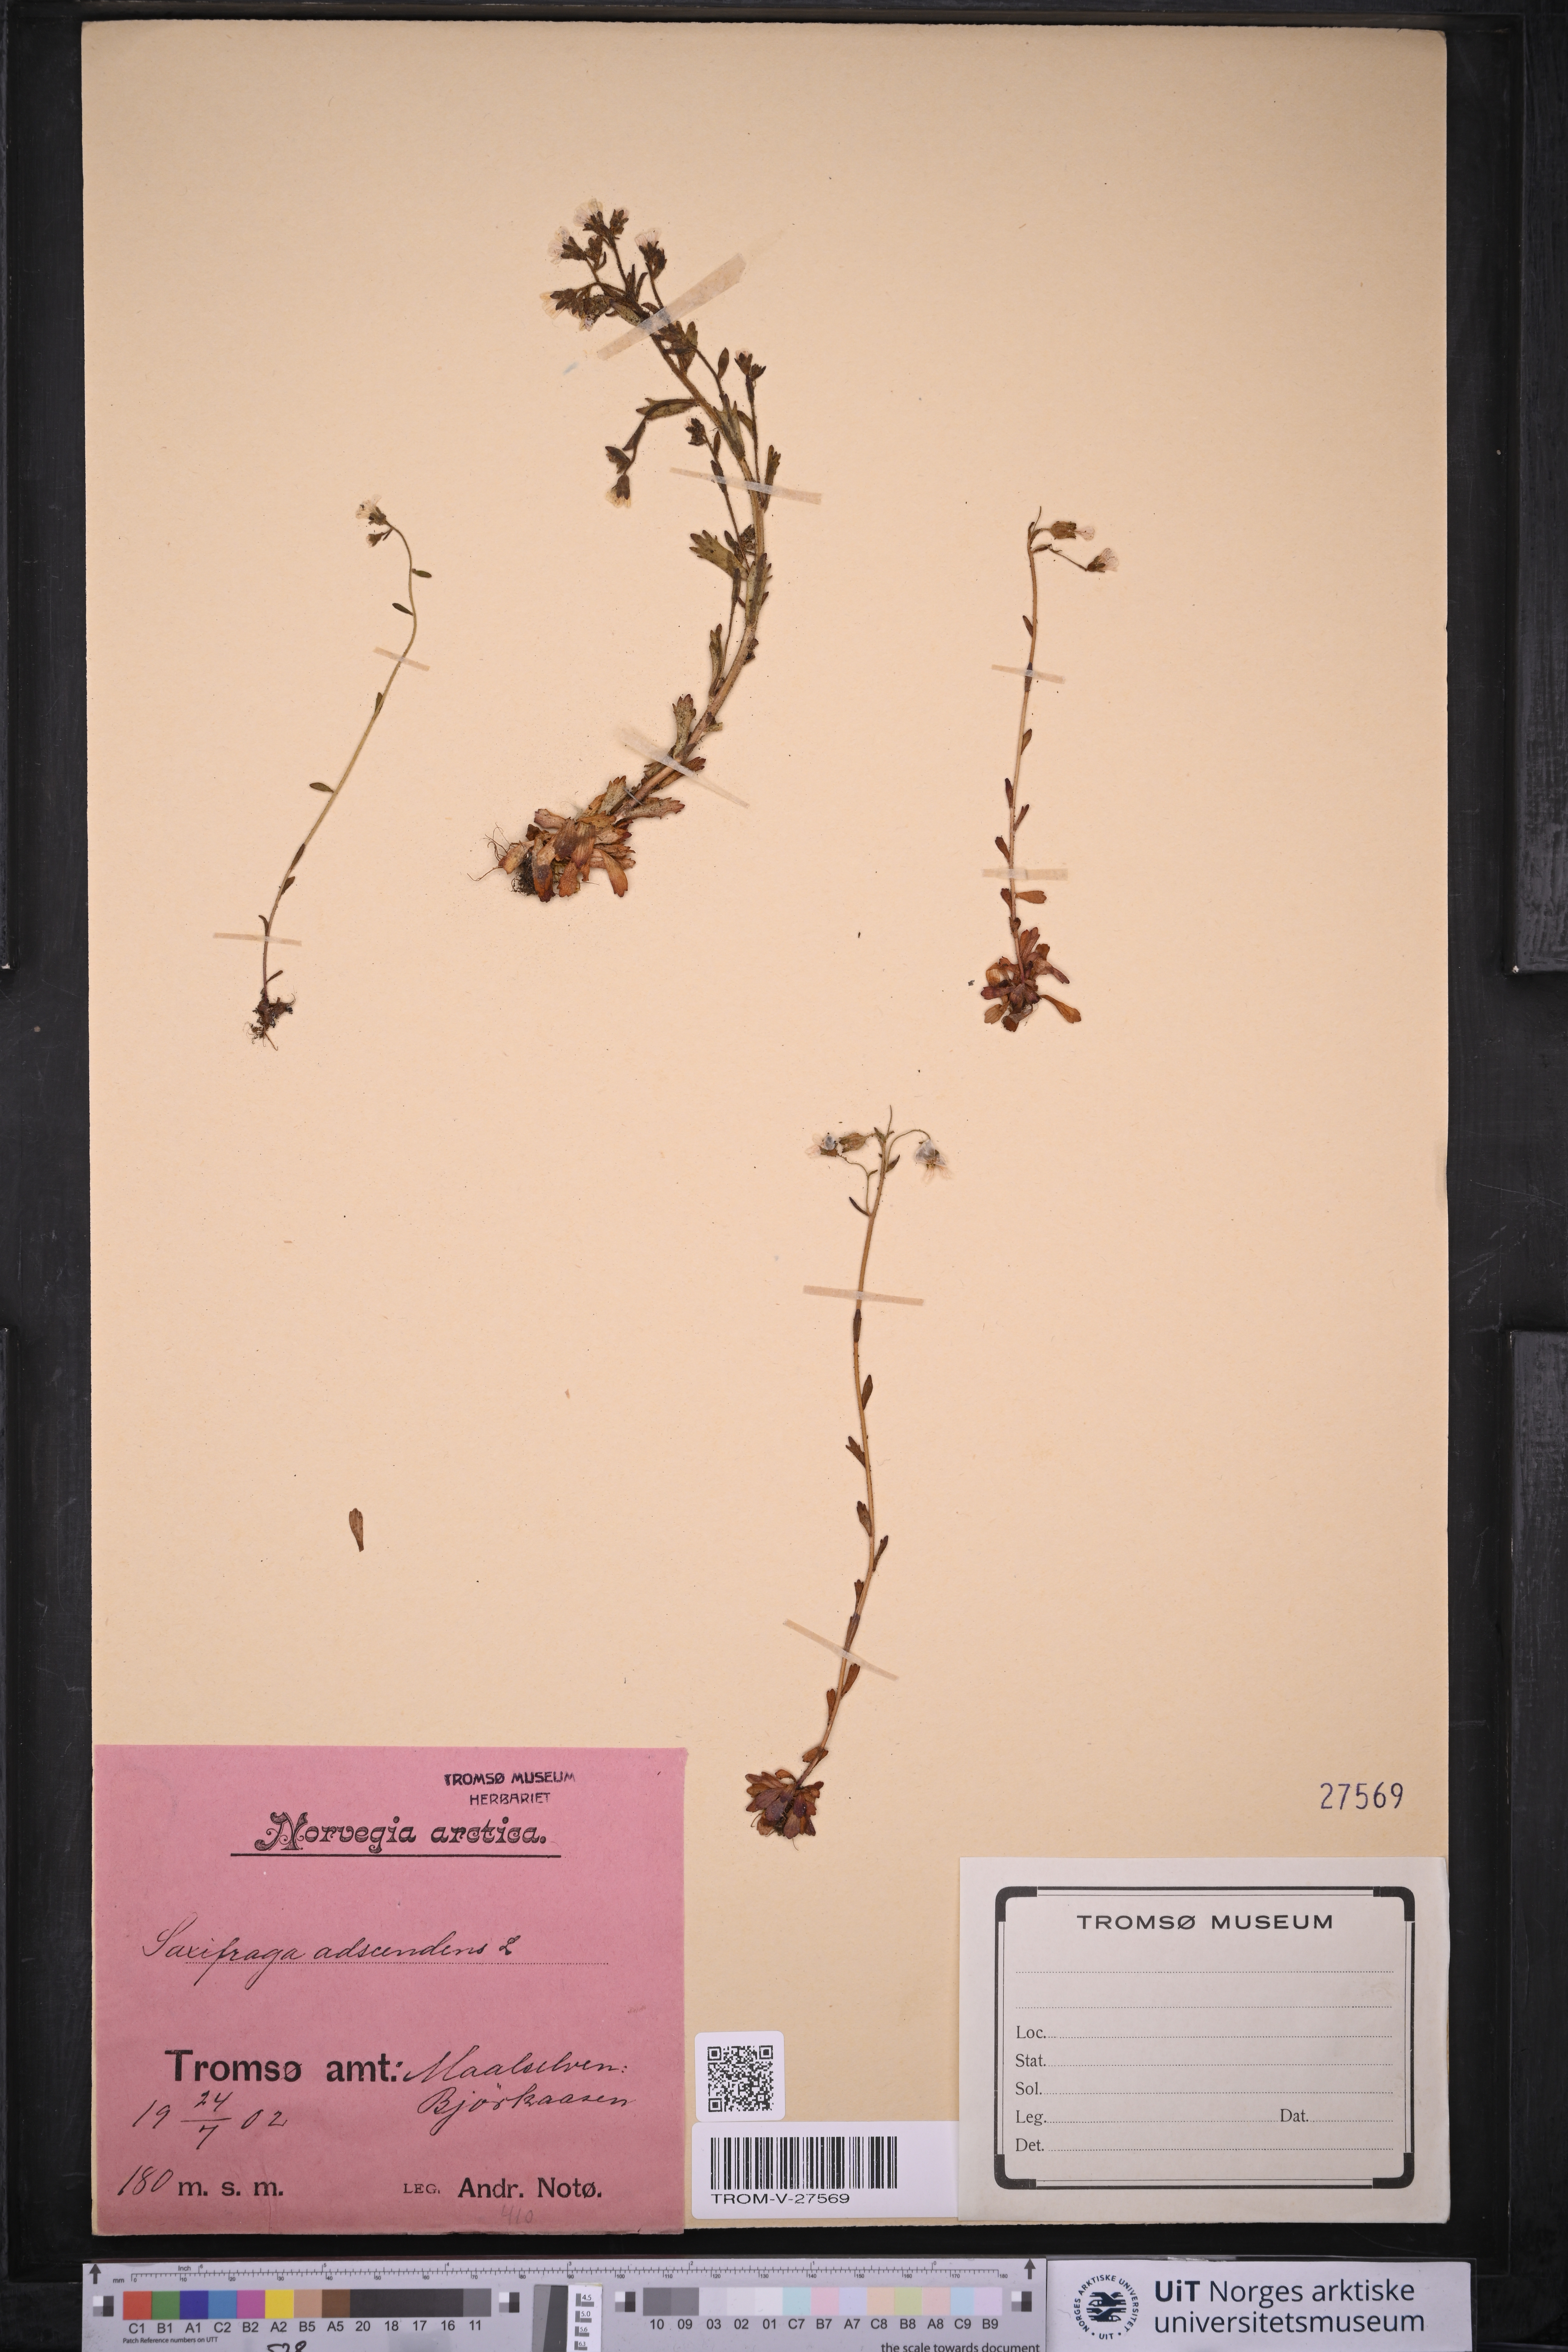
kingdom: Plantae
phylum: Tracheophyta
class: Magnoliopsida
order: Saxifragales
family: Saxifragaceae
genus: Saxifraga
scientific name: Saxifraga adscendens
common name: Ascending saxifrage
